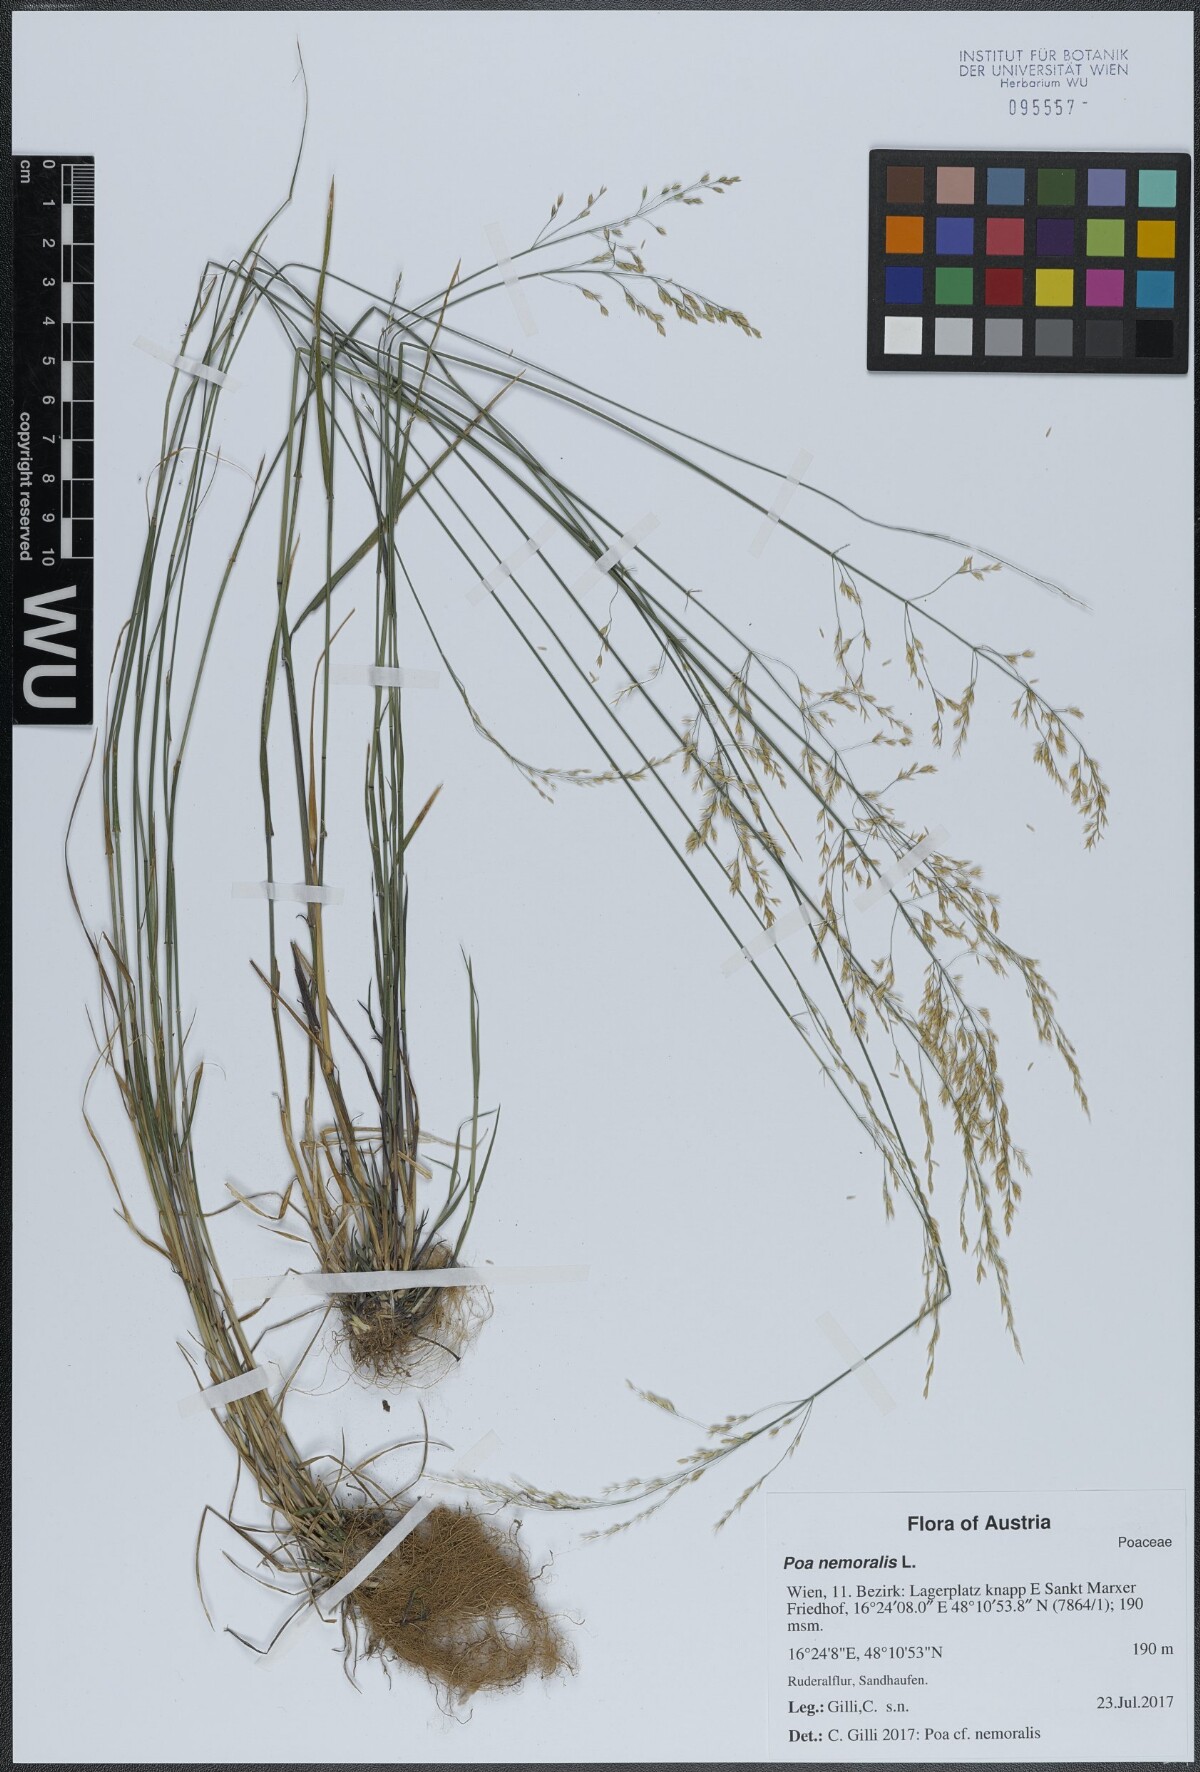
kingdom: Plantae
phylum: Tracheophyta
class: Liliopsida
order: Poales
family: Poaceae
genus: Poa
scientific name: Poa nemoralis
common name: Wood bluegrass
